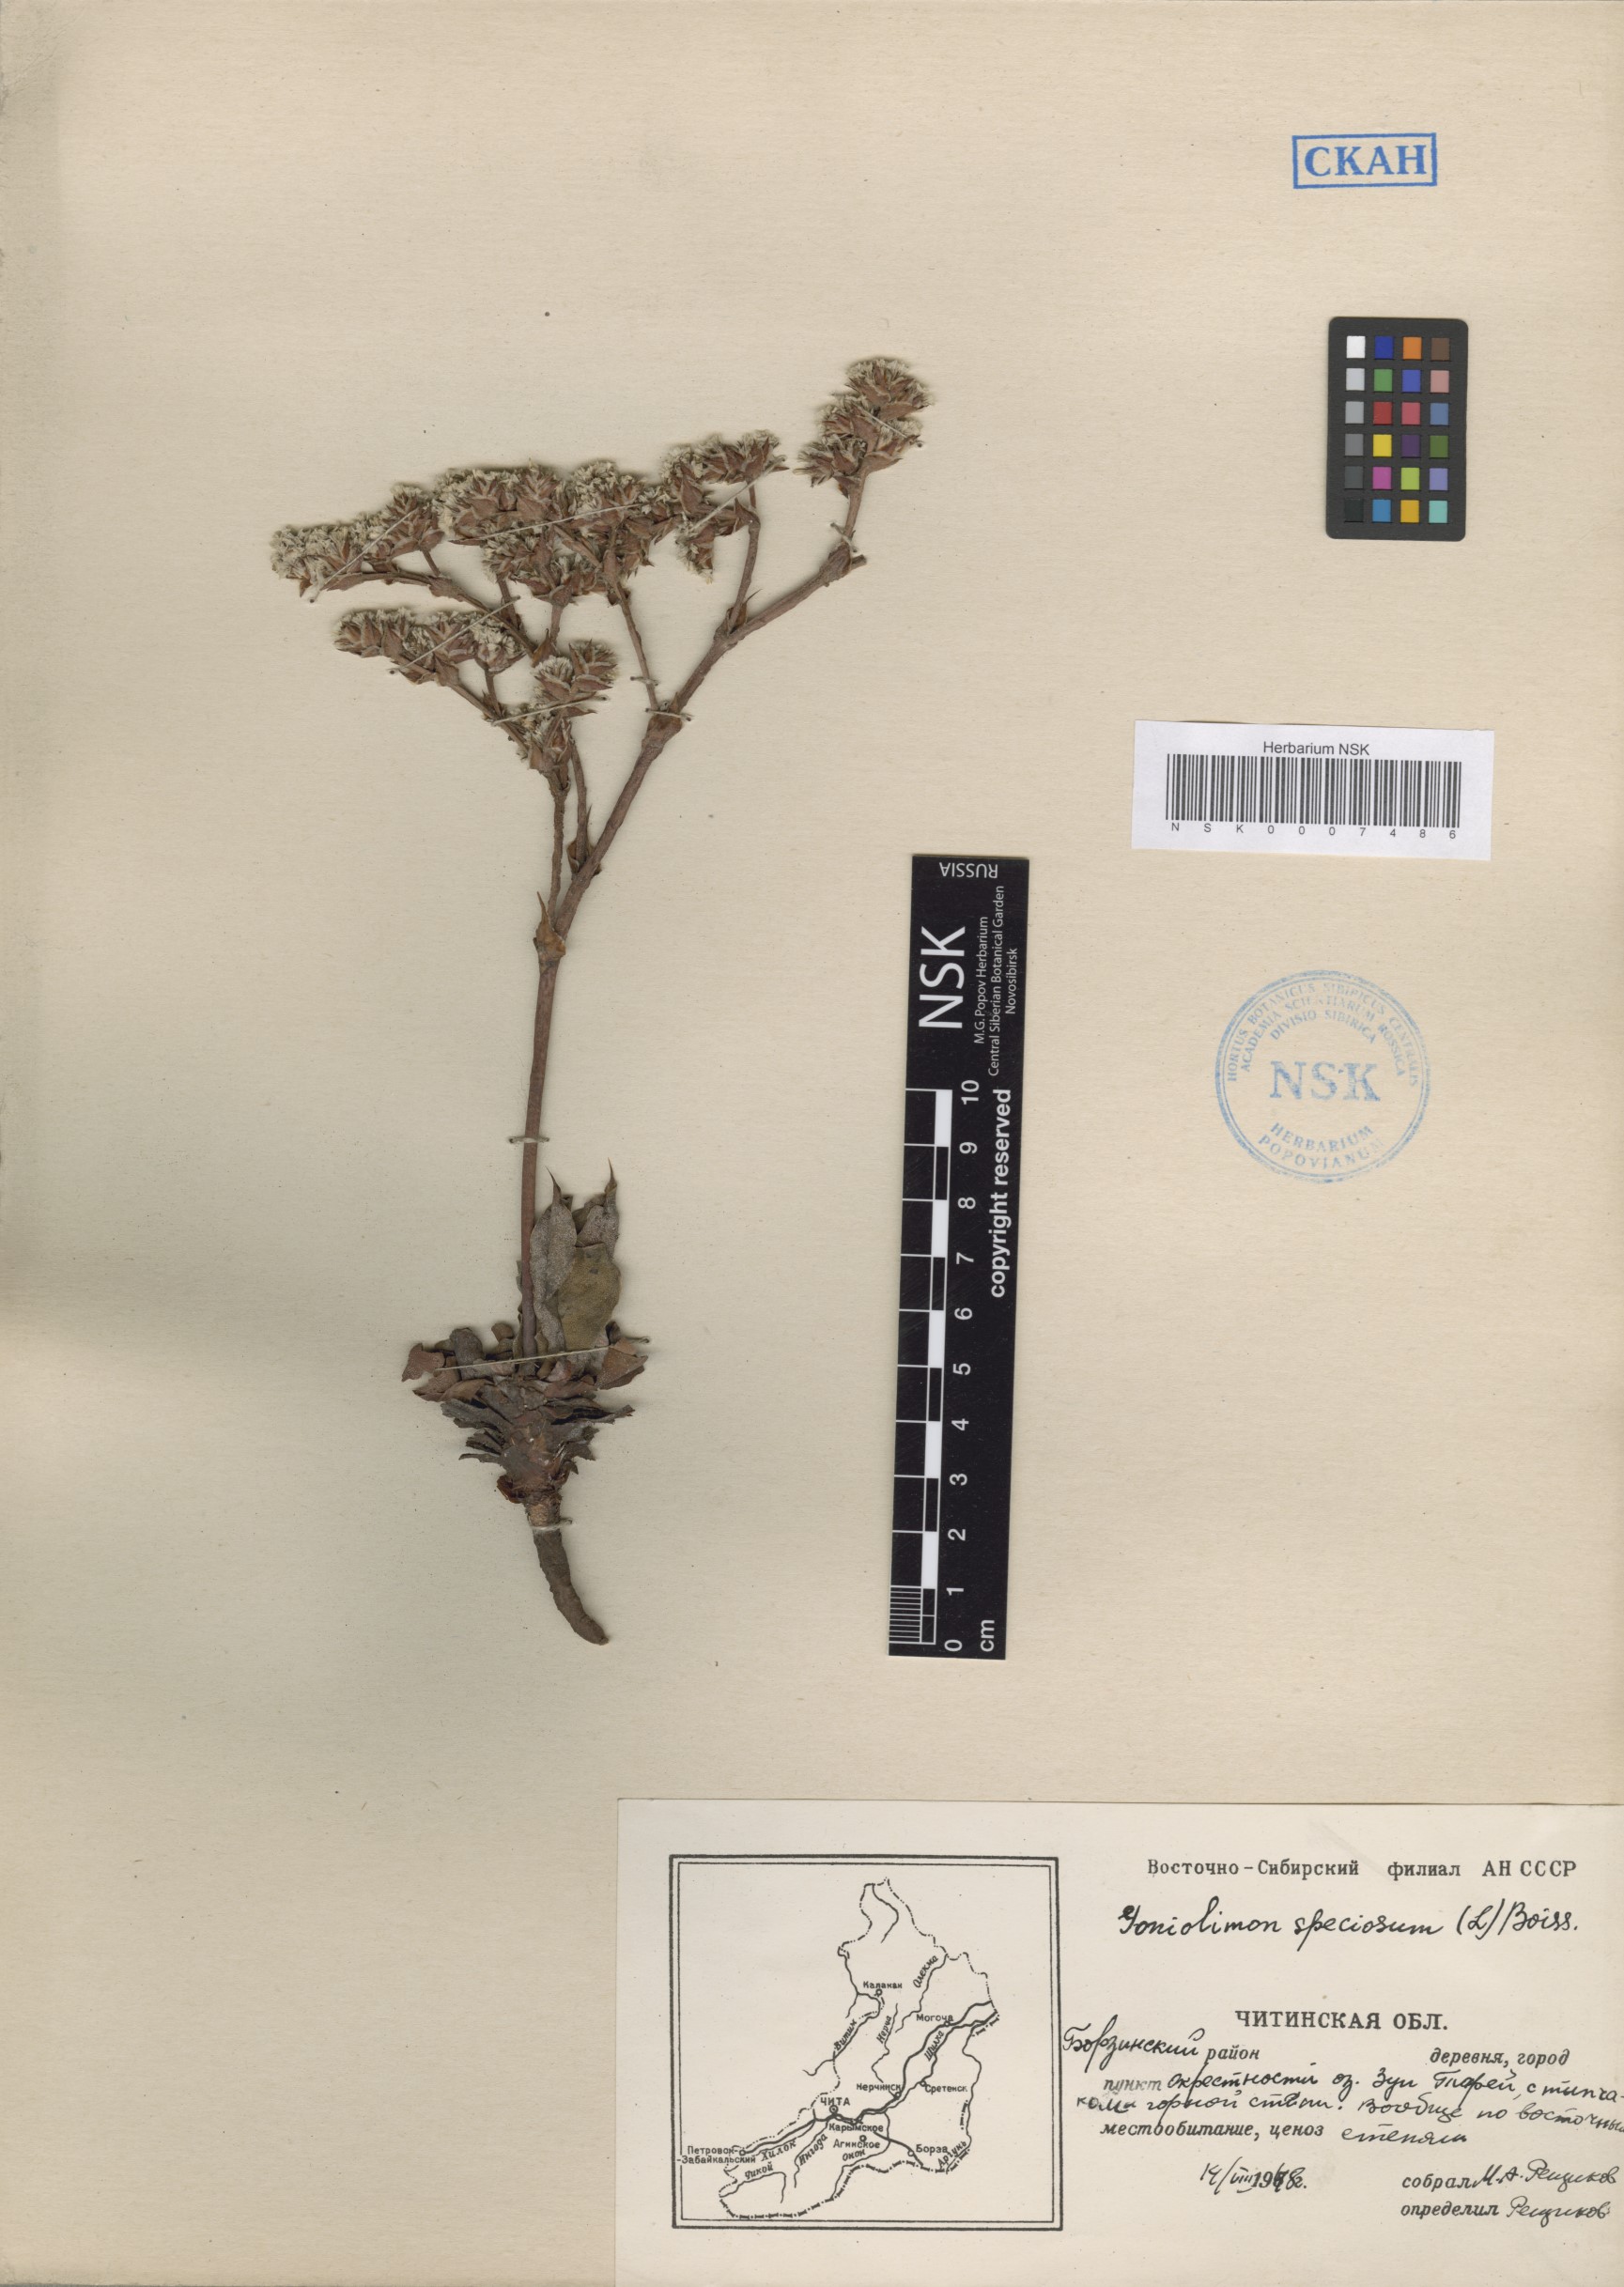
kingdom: Plantae
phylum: Tracheophyta
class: Magnoliopsida
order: Caryophyllales
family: Plumbaginaceae
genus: Goniolimon
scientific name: Goniolimon speciosum
